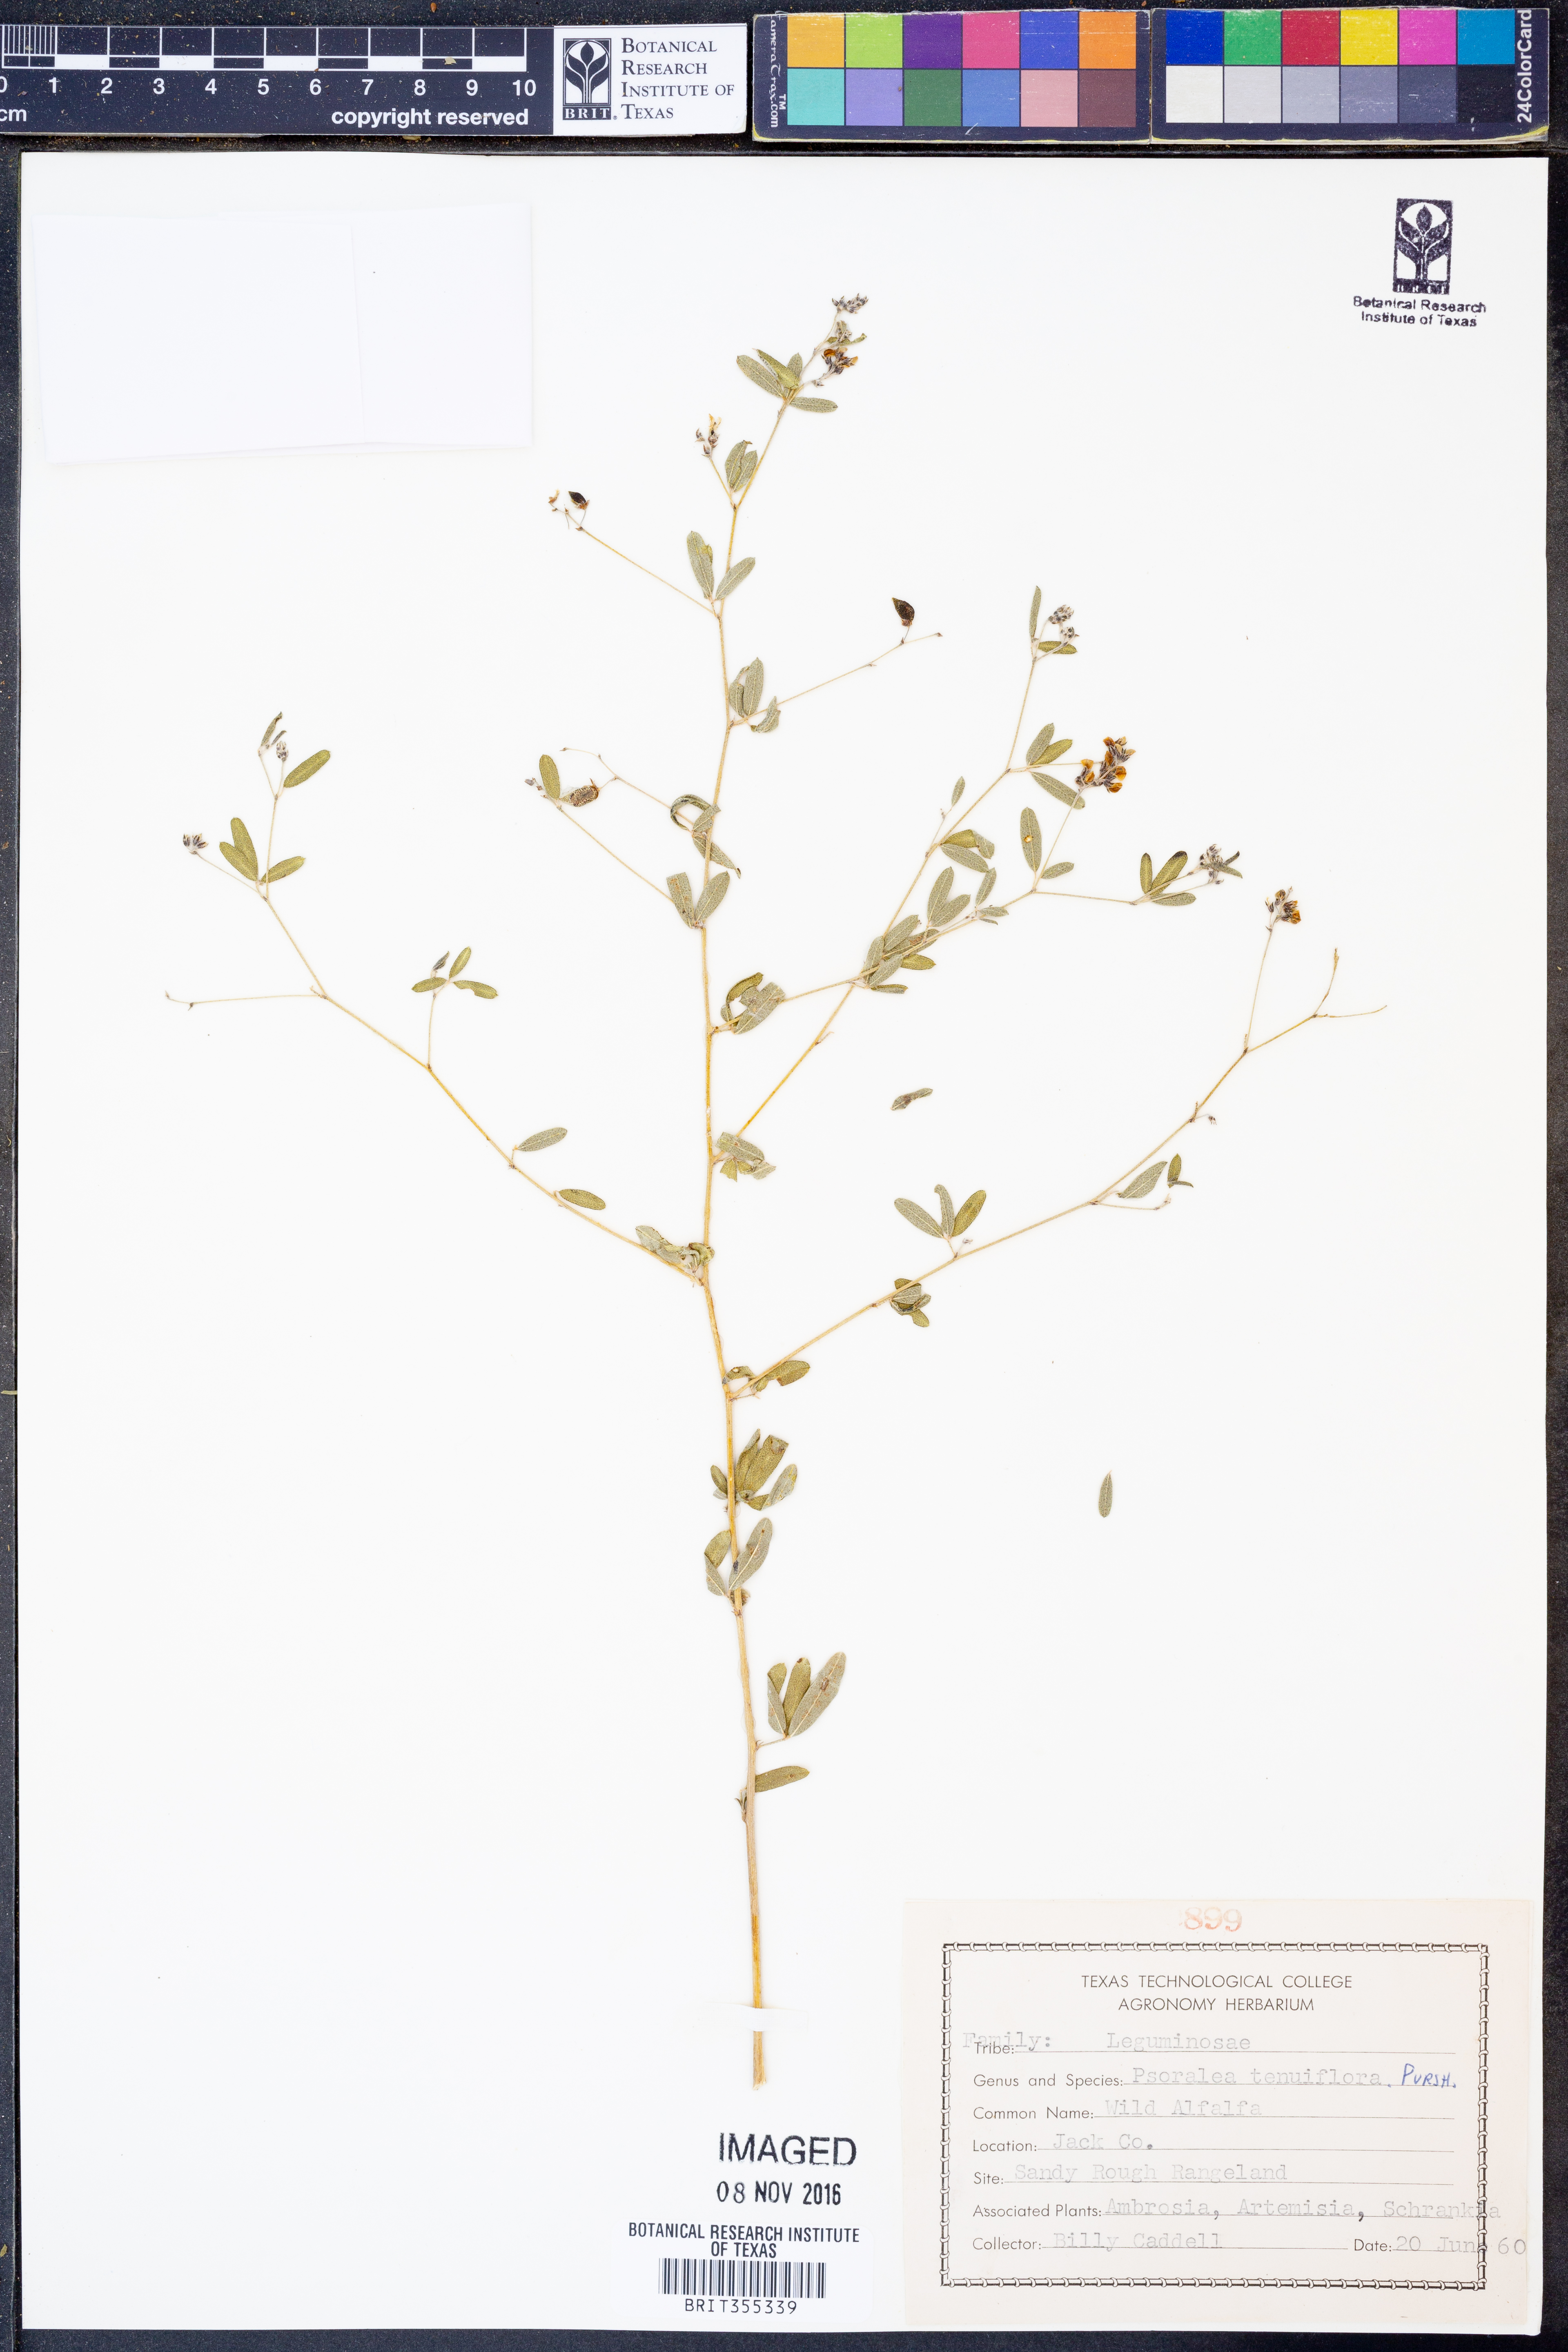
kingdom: Plantae
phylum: Tracheophyta
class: Magnoliopsida
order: Fabales
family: Fabaceae
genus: Pediomelum
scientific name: Pediomelum tenuiflorum
